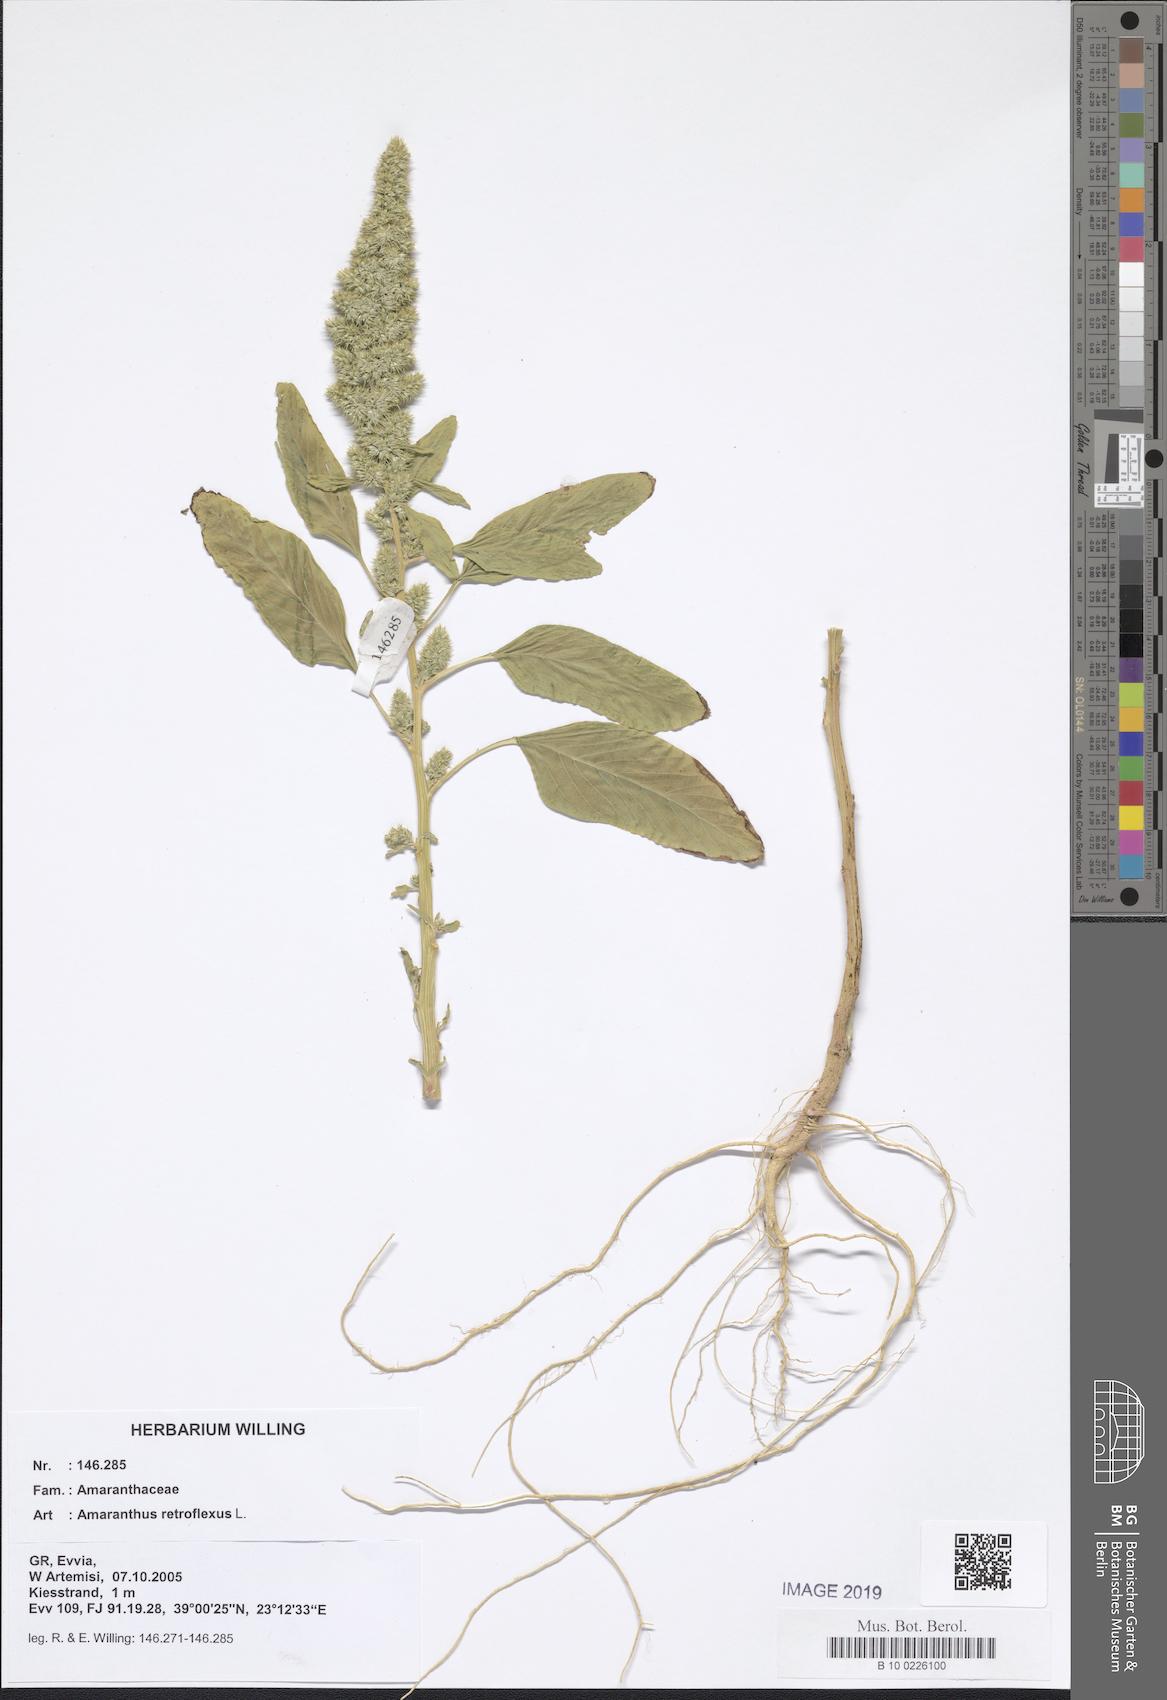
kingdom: Plantae
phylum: Tracheophyta
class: Magnoliopsida
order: Caryophyllales
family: Amaranthaceae
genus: Amaranthus
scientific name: Amaranthus retroflexus
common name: Redroot amaranth
